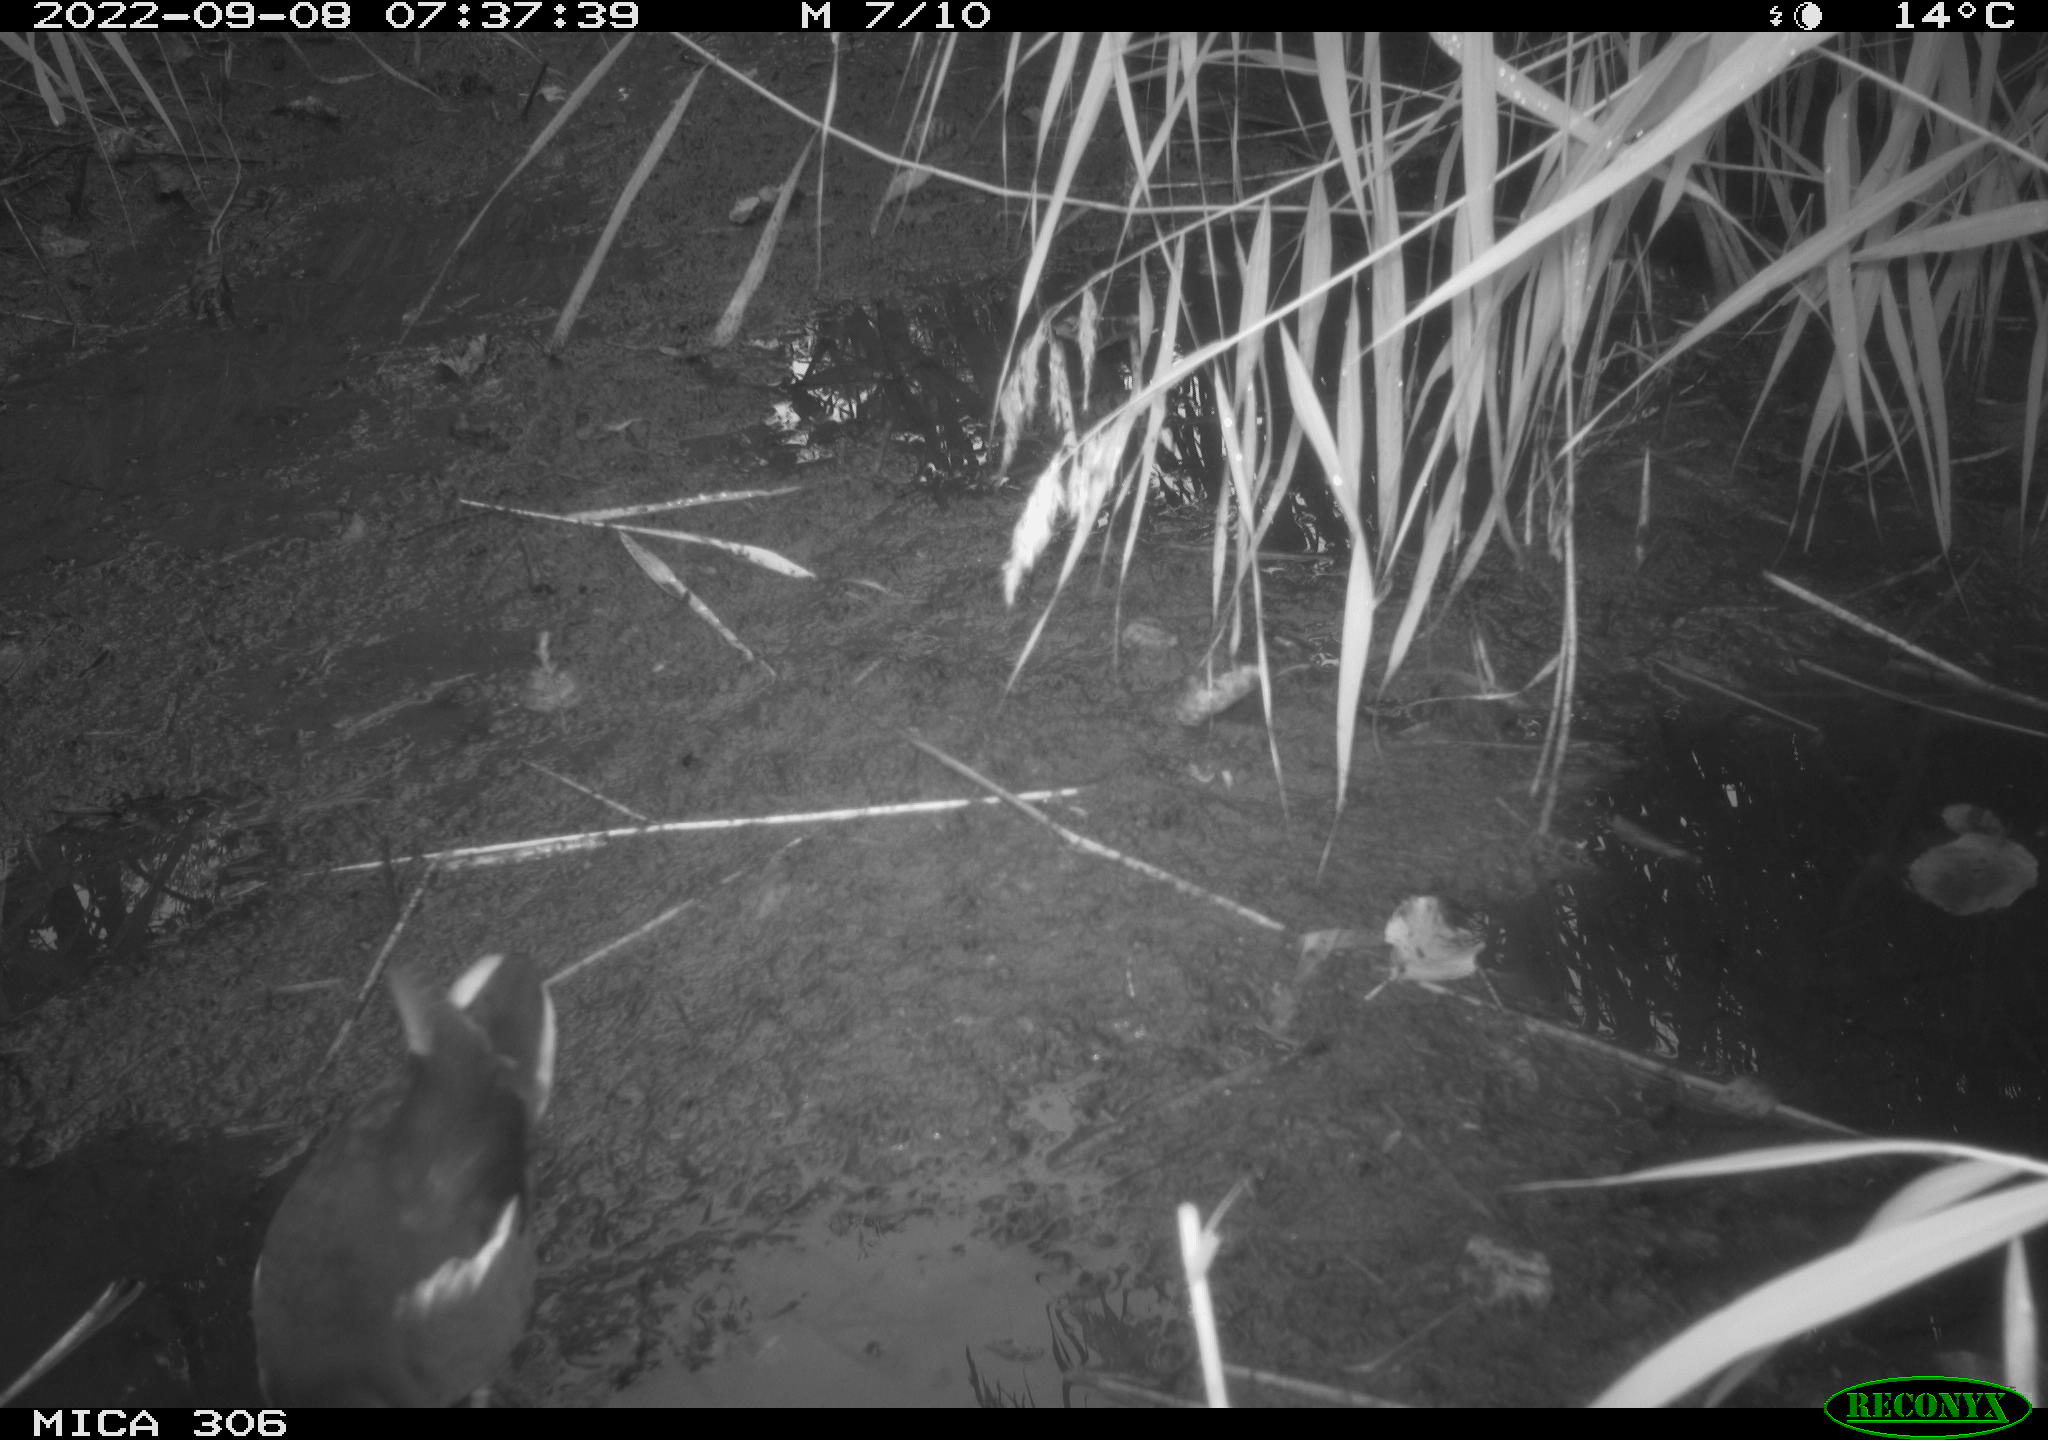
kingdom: Animalia
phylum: Chordata
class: Aves
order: Gruiformes
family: Rallidae
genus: Gallinula
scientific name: Gallinula chloropus
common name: Common moorhen
